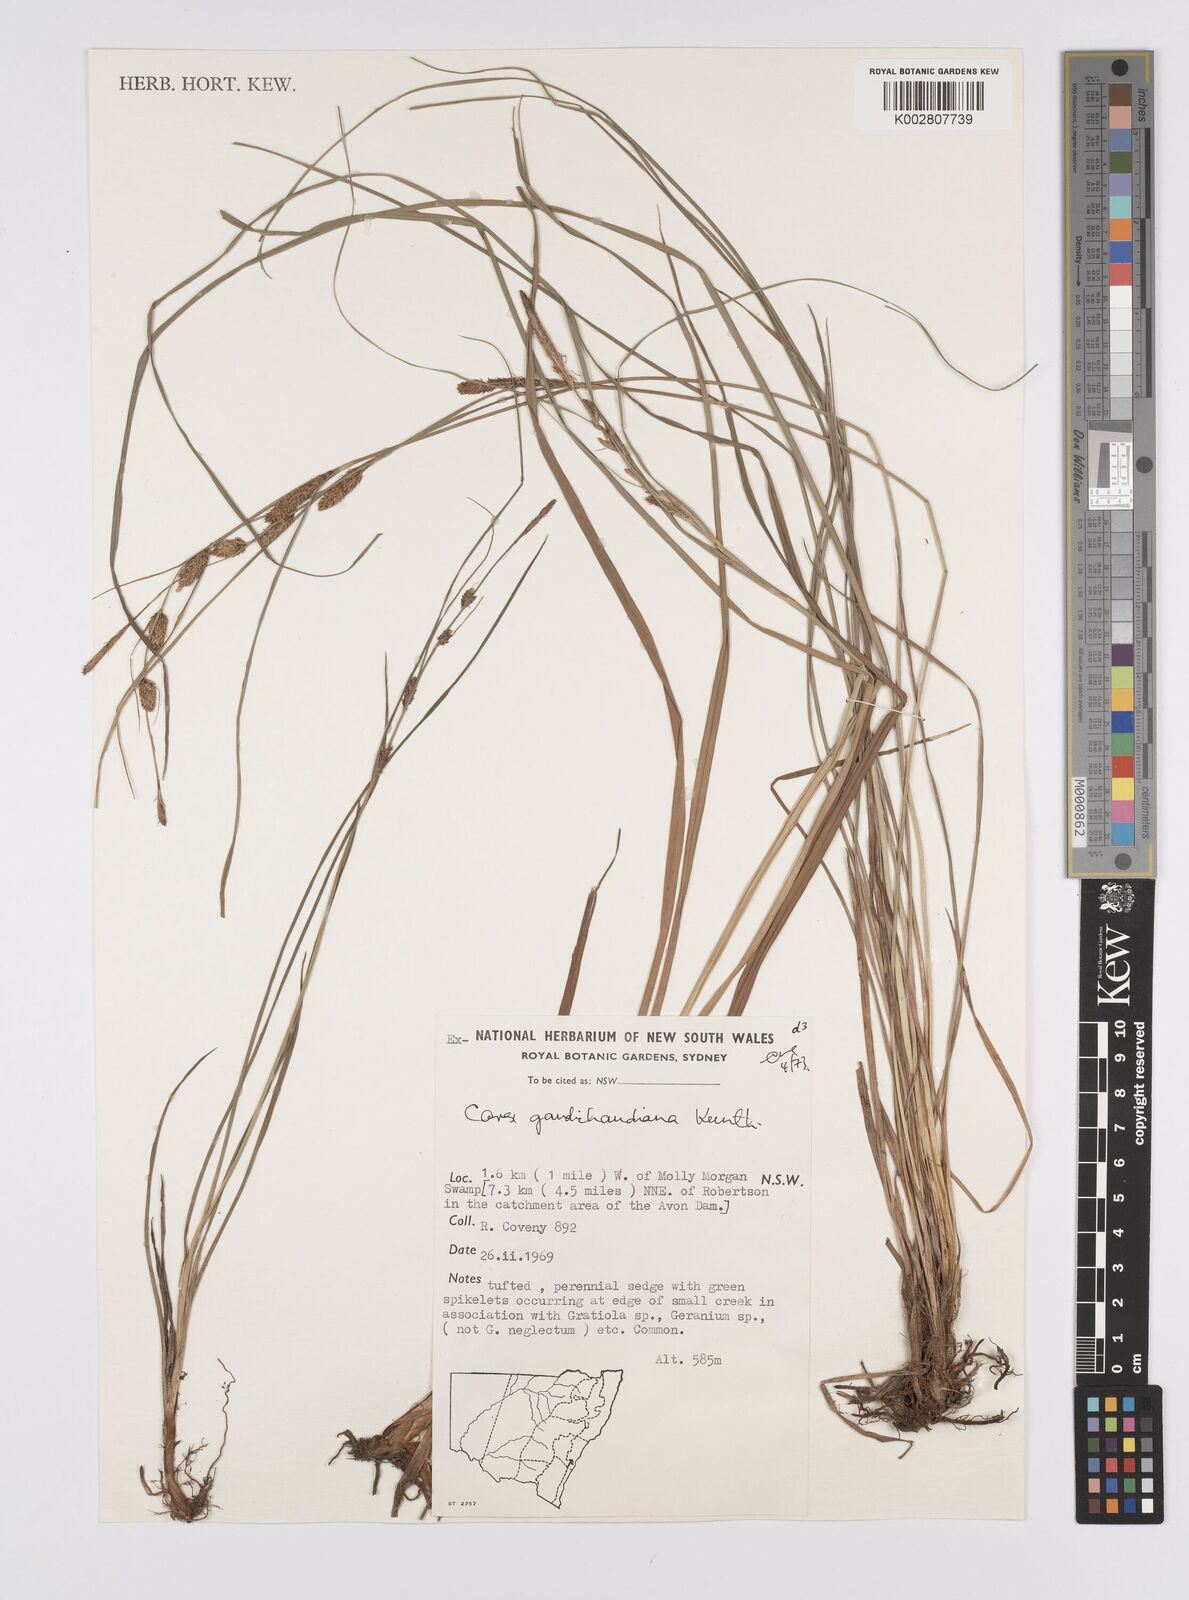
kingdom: Plantae
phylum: Tracheophyta
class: Liliopsida
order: Poales
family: Cyperaceae
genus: Carex
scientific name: Carex gaudichaudiana
